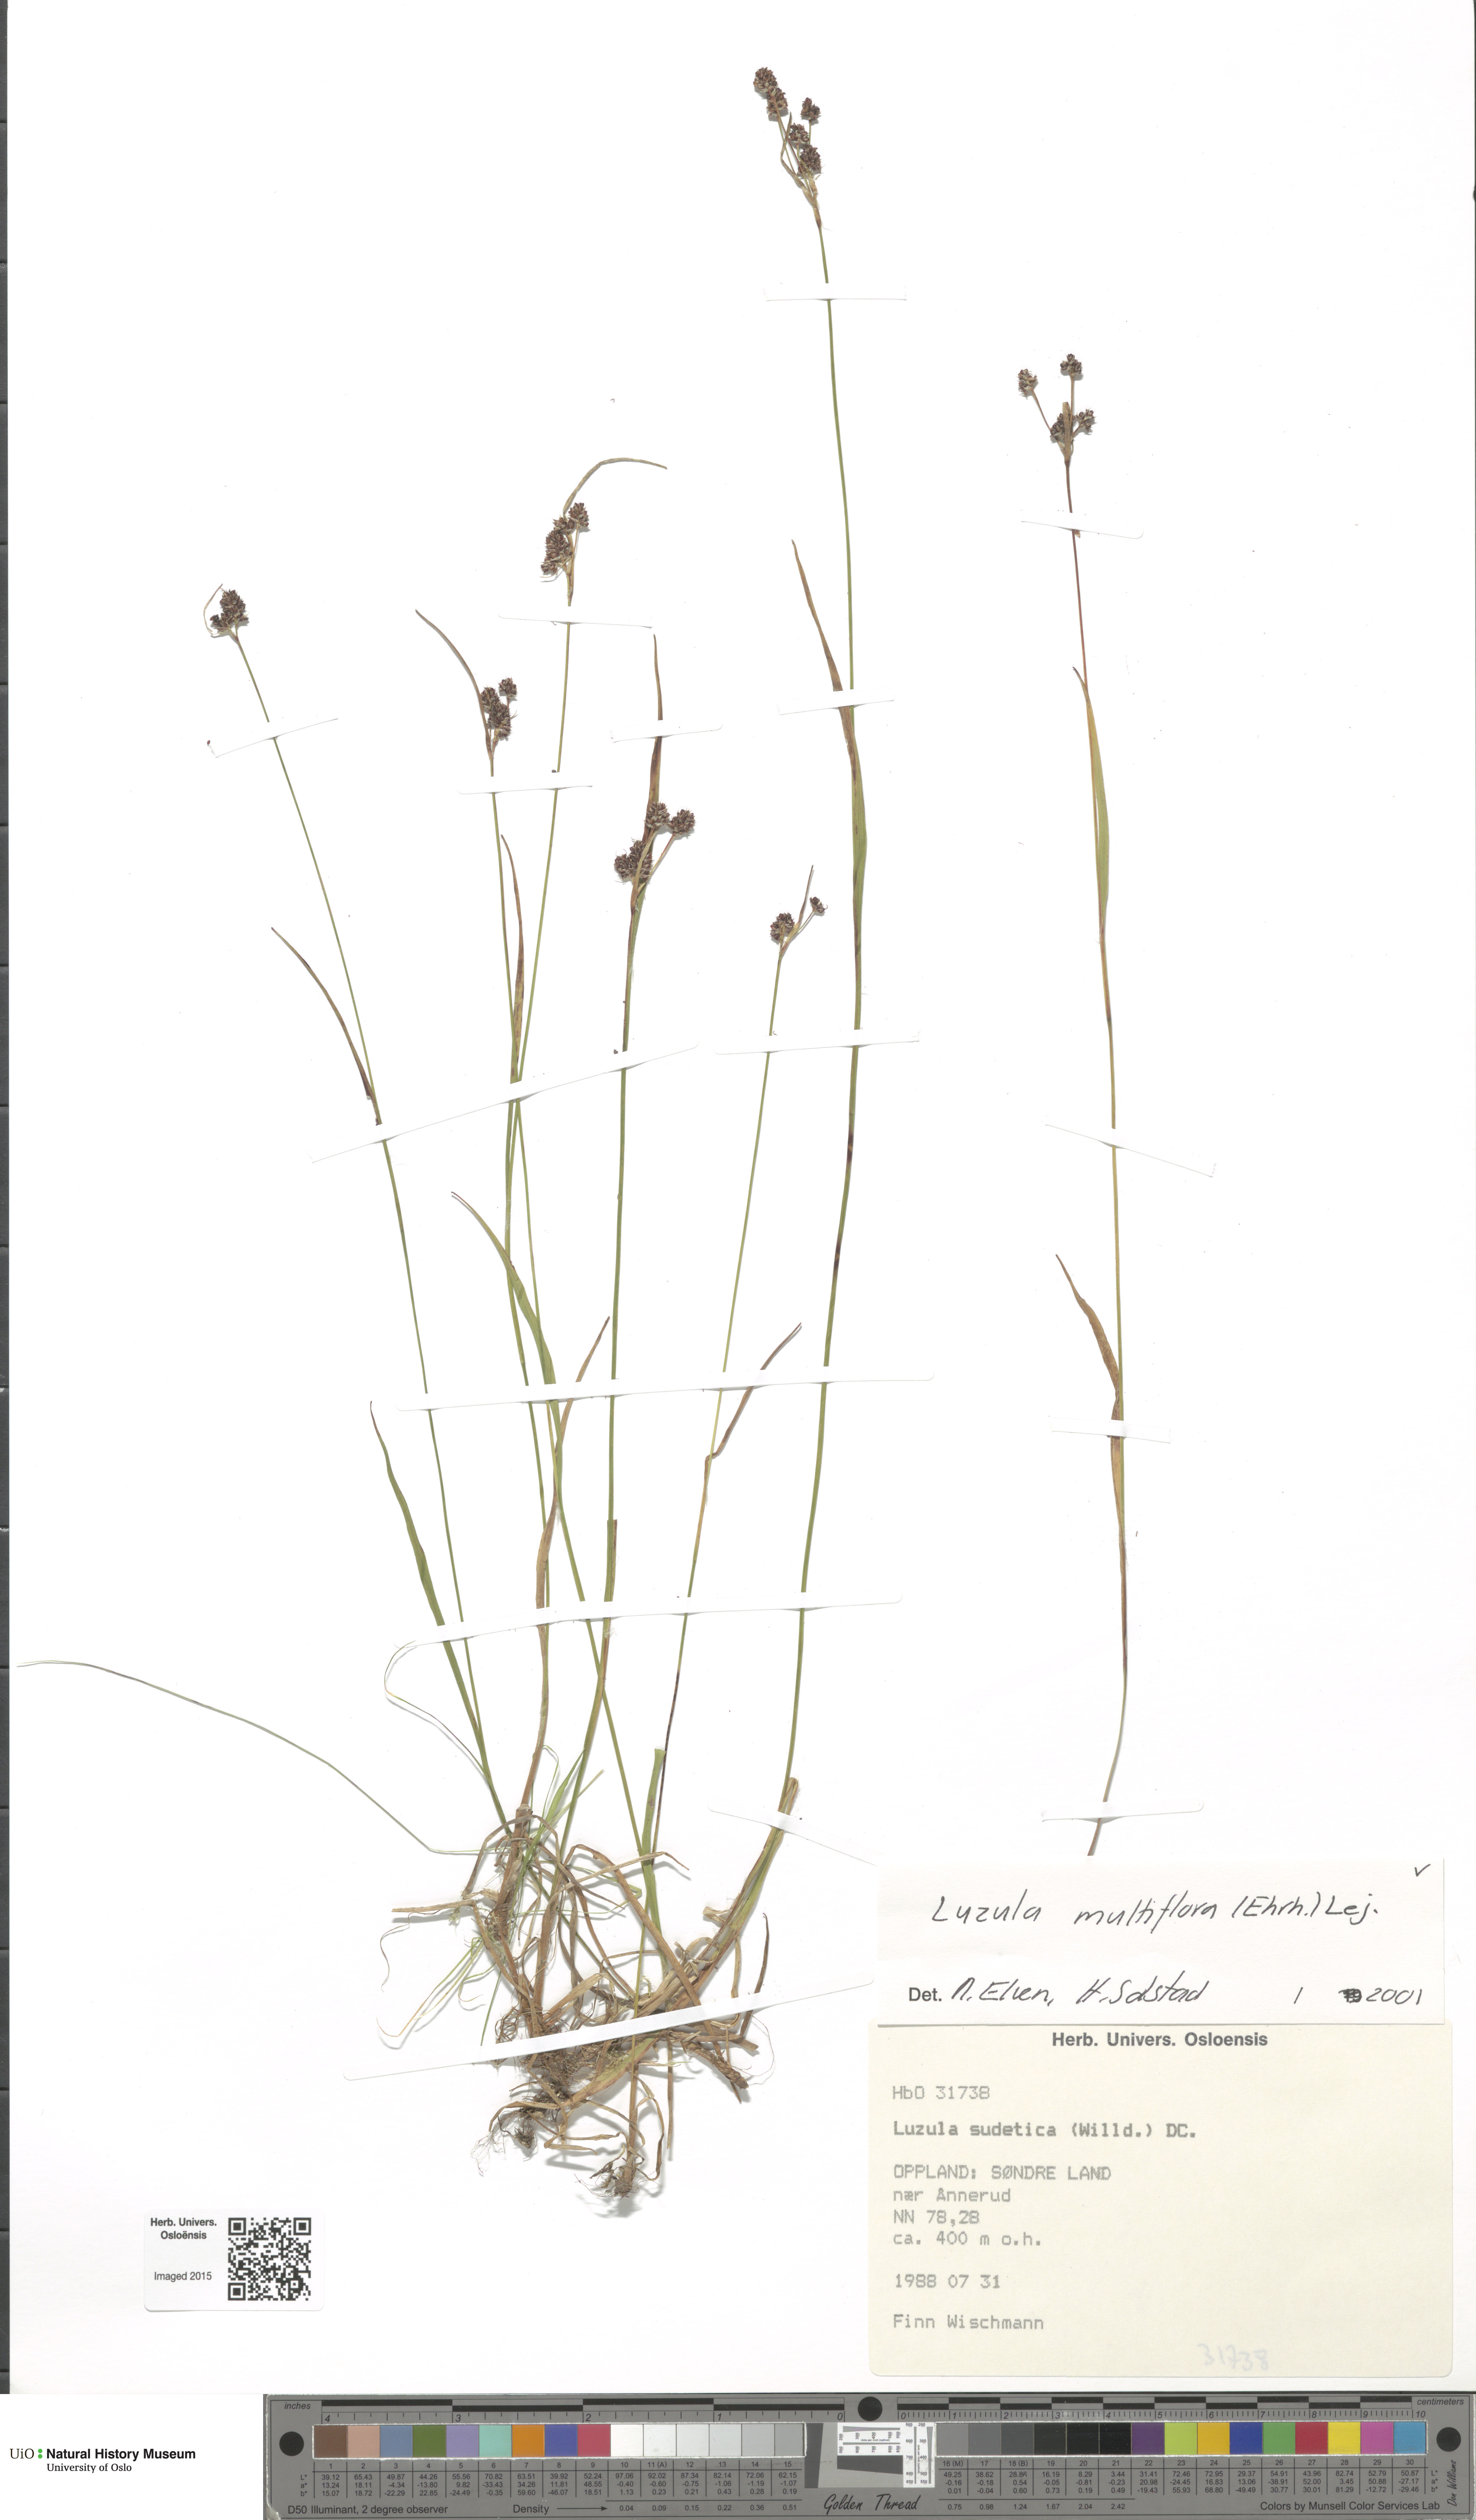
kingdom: Plantae
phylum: Tracheophyta
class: Liliopsida
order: Poales
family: Juncaceae
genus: Luzula
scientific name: Luzula
